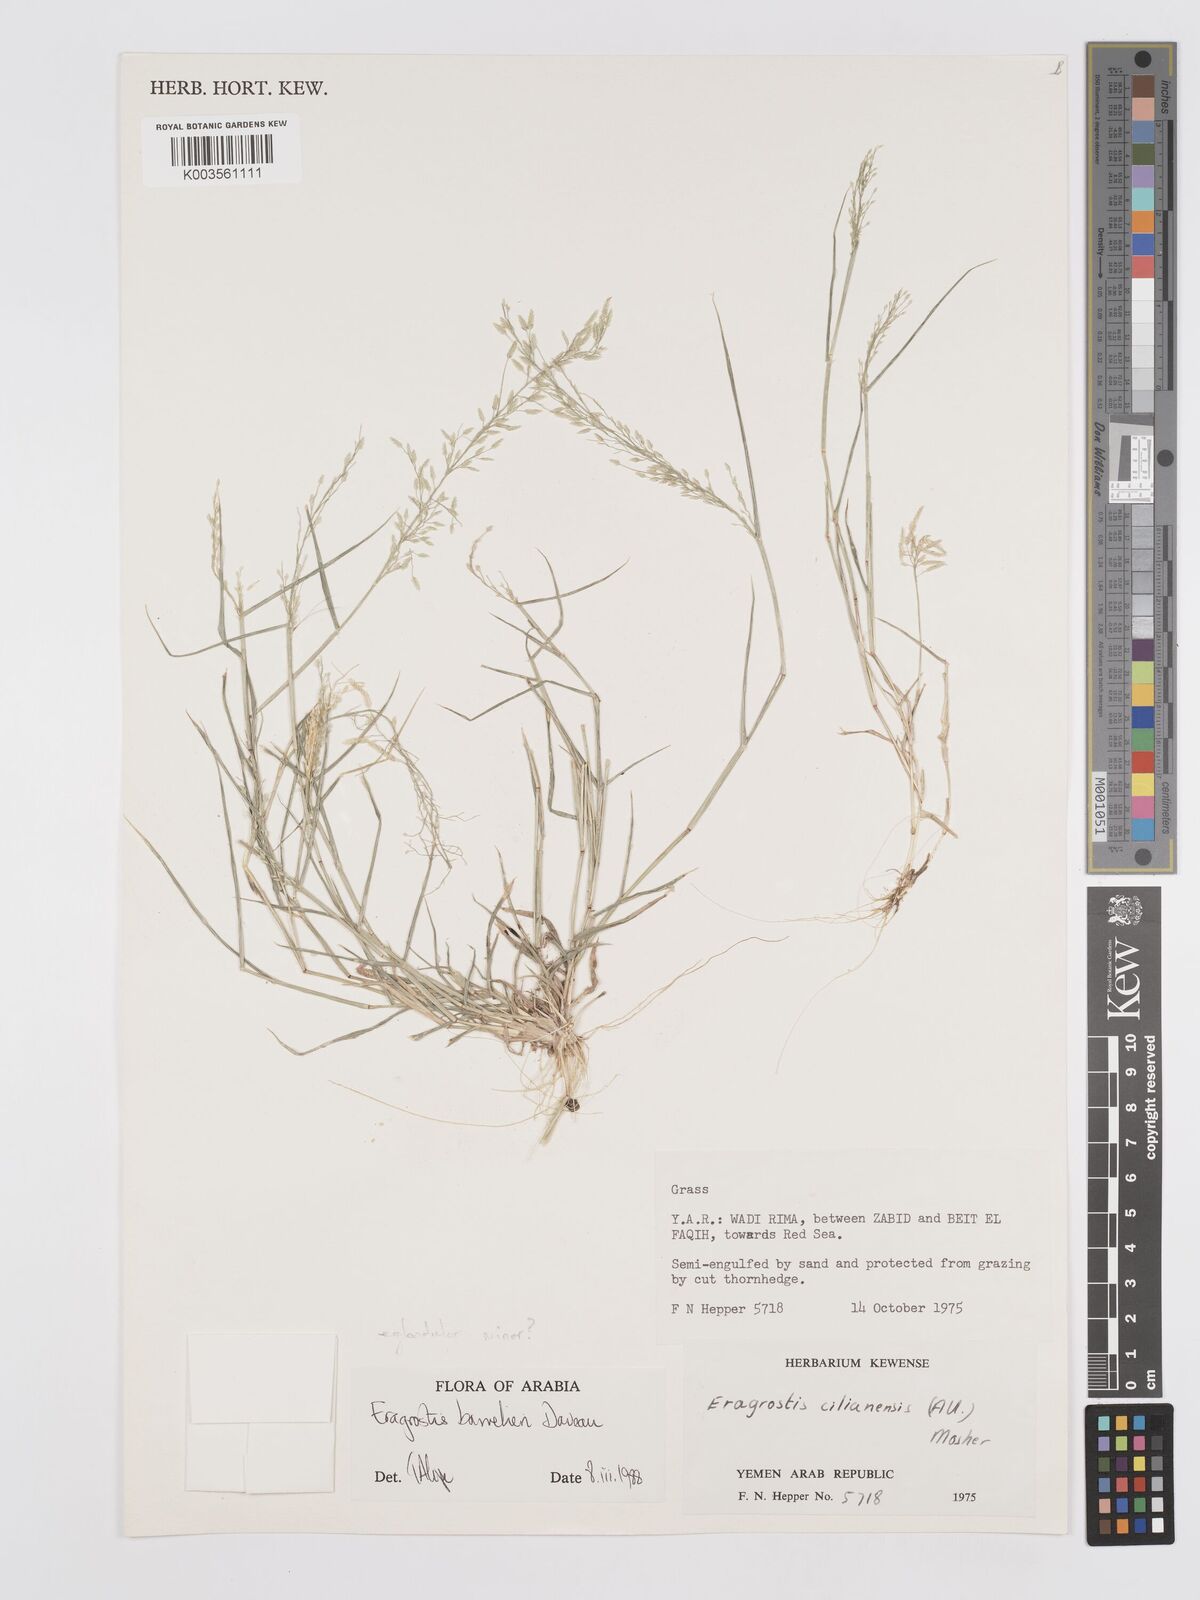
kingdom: Plantae
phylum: Tracheophyta
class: Liliopsida
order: Poales
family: Poaceae
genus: Eragrostis
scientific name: Eragrostis barrelieri
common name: Mediterranean lovegrass
